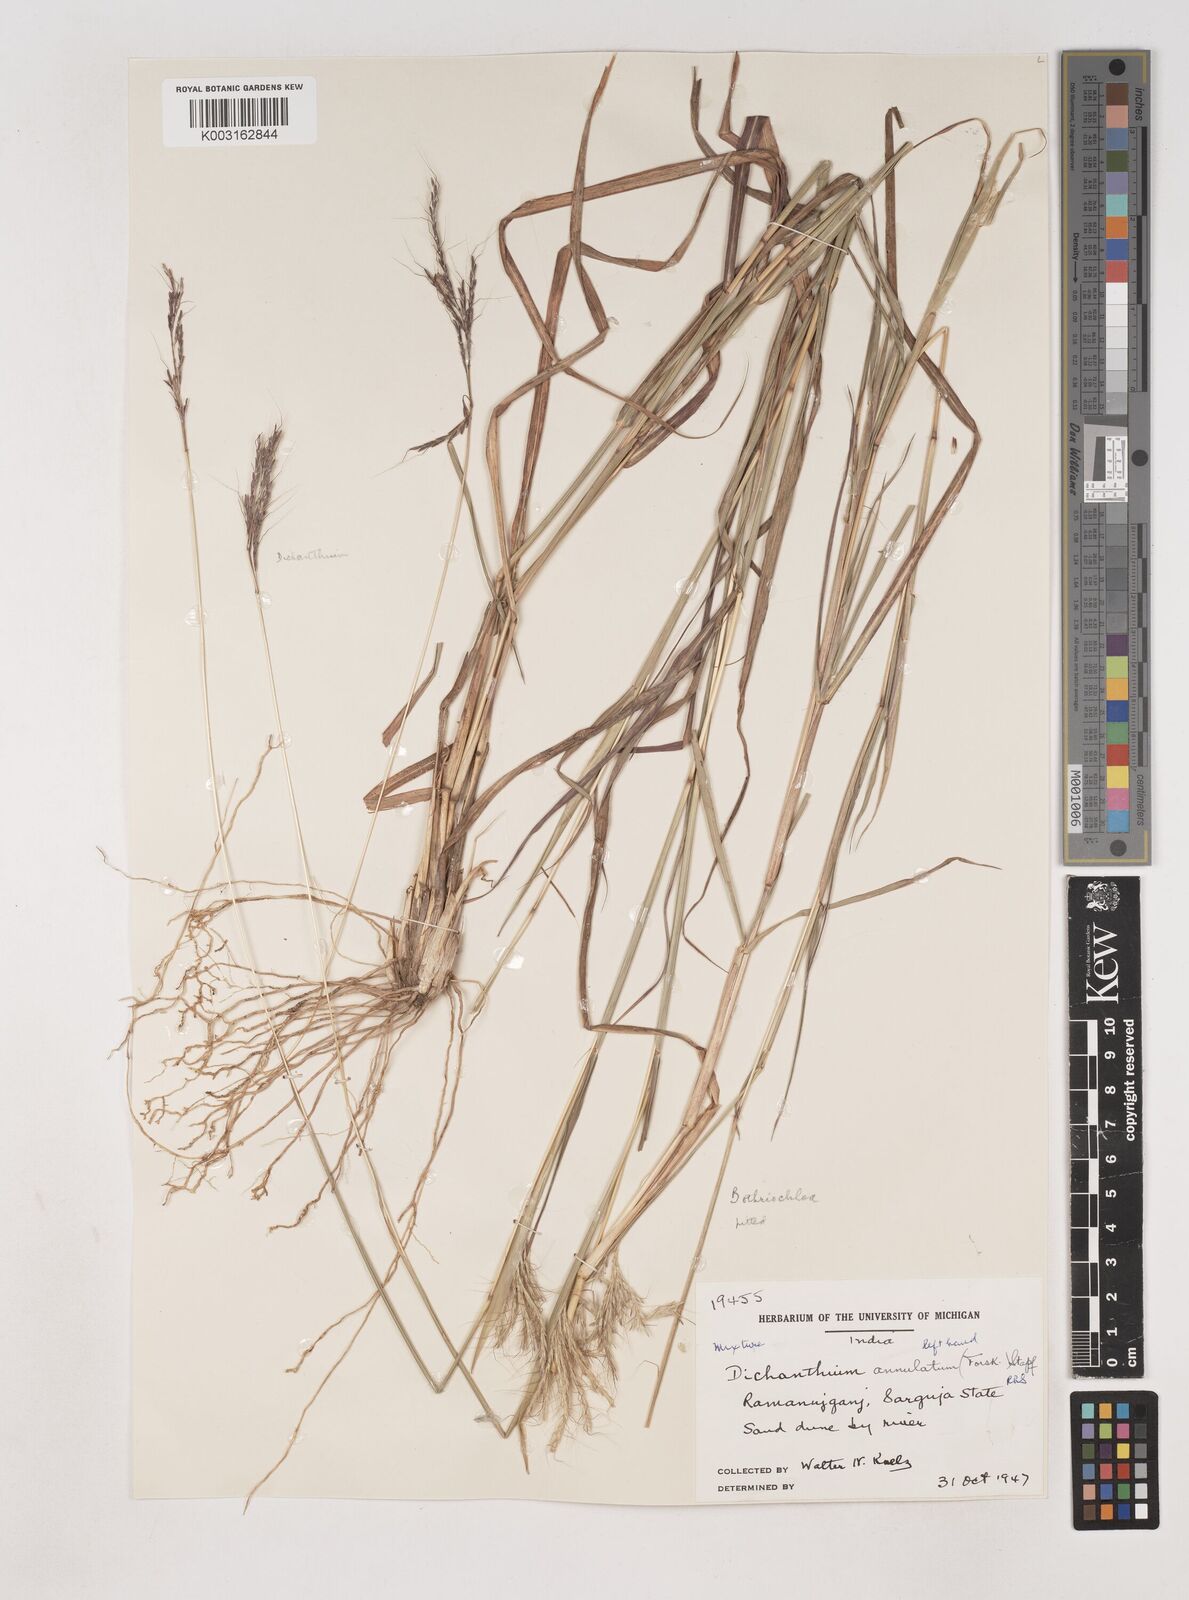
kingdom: Plantae
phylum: Tracheophyta
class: Liliopsida
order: Poales
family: Poaceae
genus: Dichanthium
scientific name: Dichanthium annulatum
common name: Kleberg's bluestem
